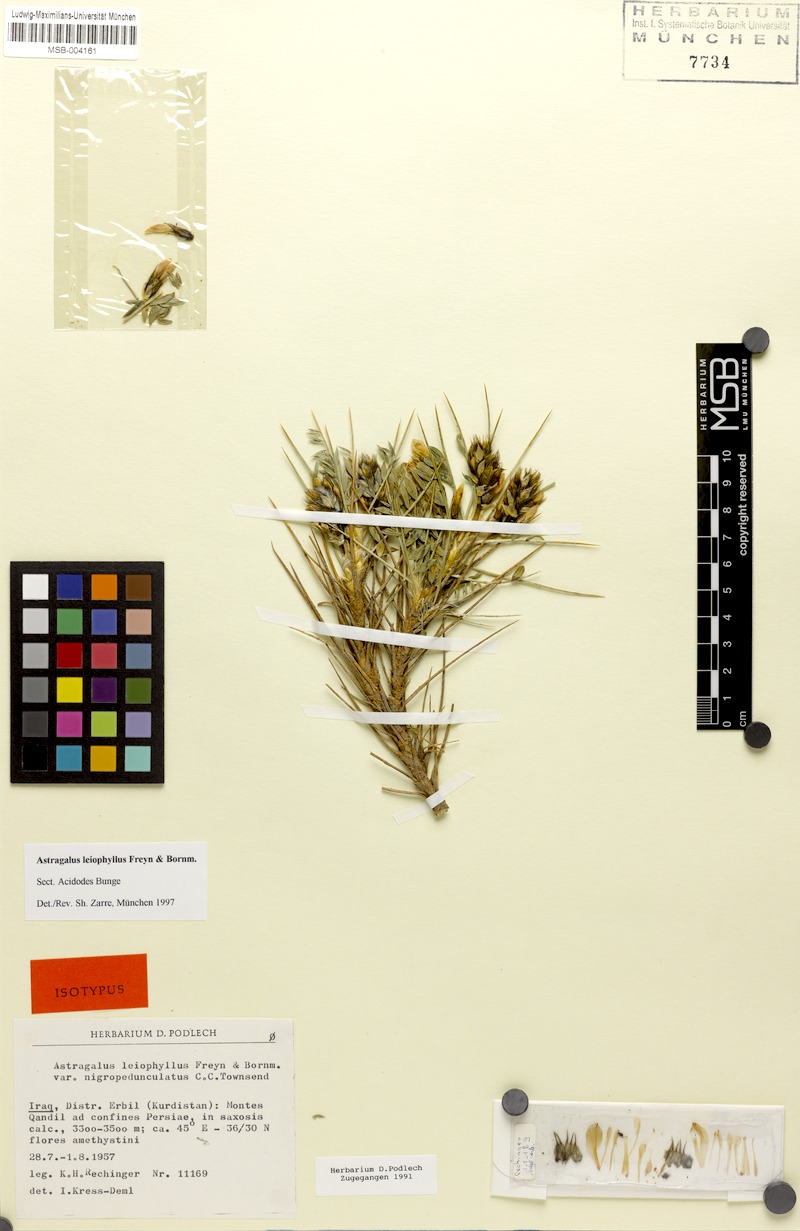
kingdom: Plantae
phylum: Tracheophyta
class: Magnoliopsida
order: Fabales
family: Fabaceae
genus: Astragalus
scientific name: Astragalus leiophyllus
